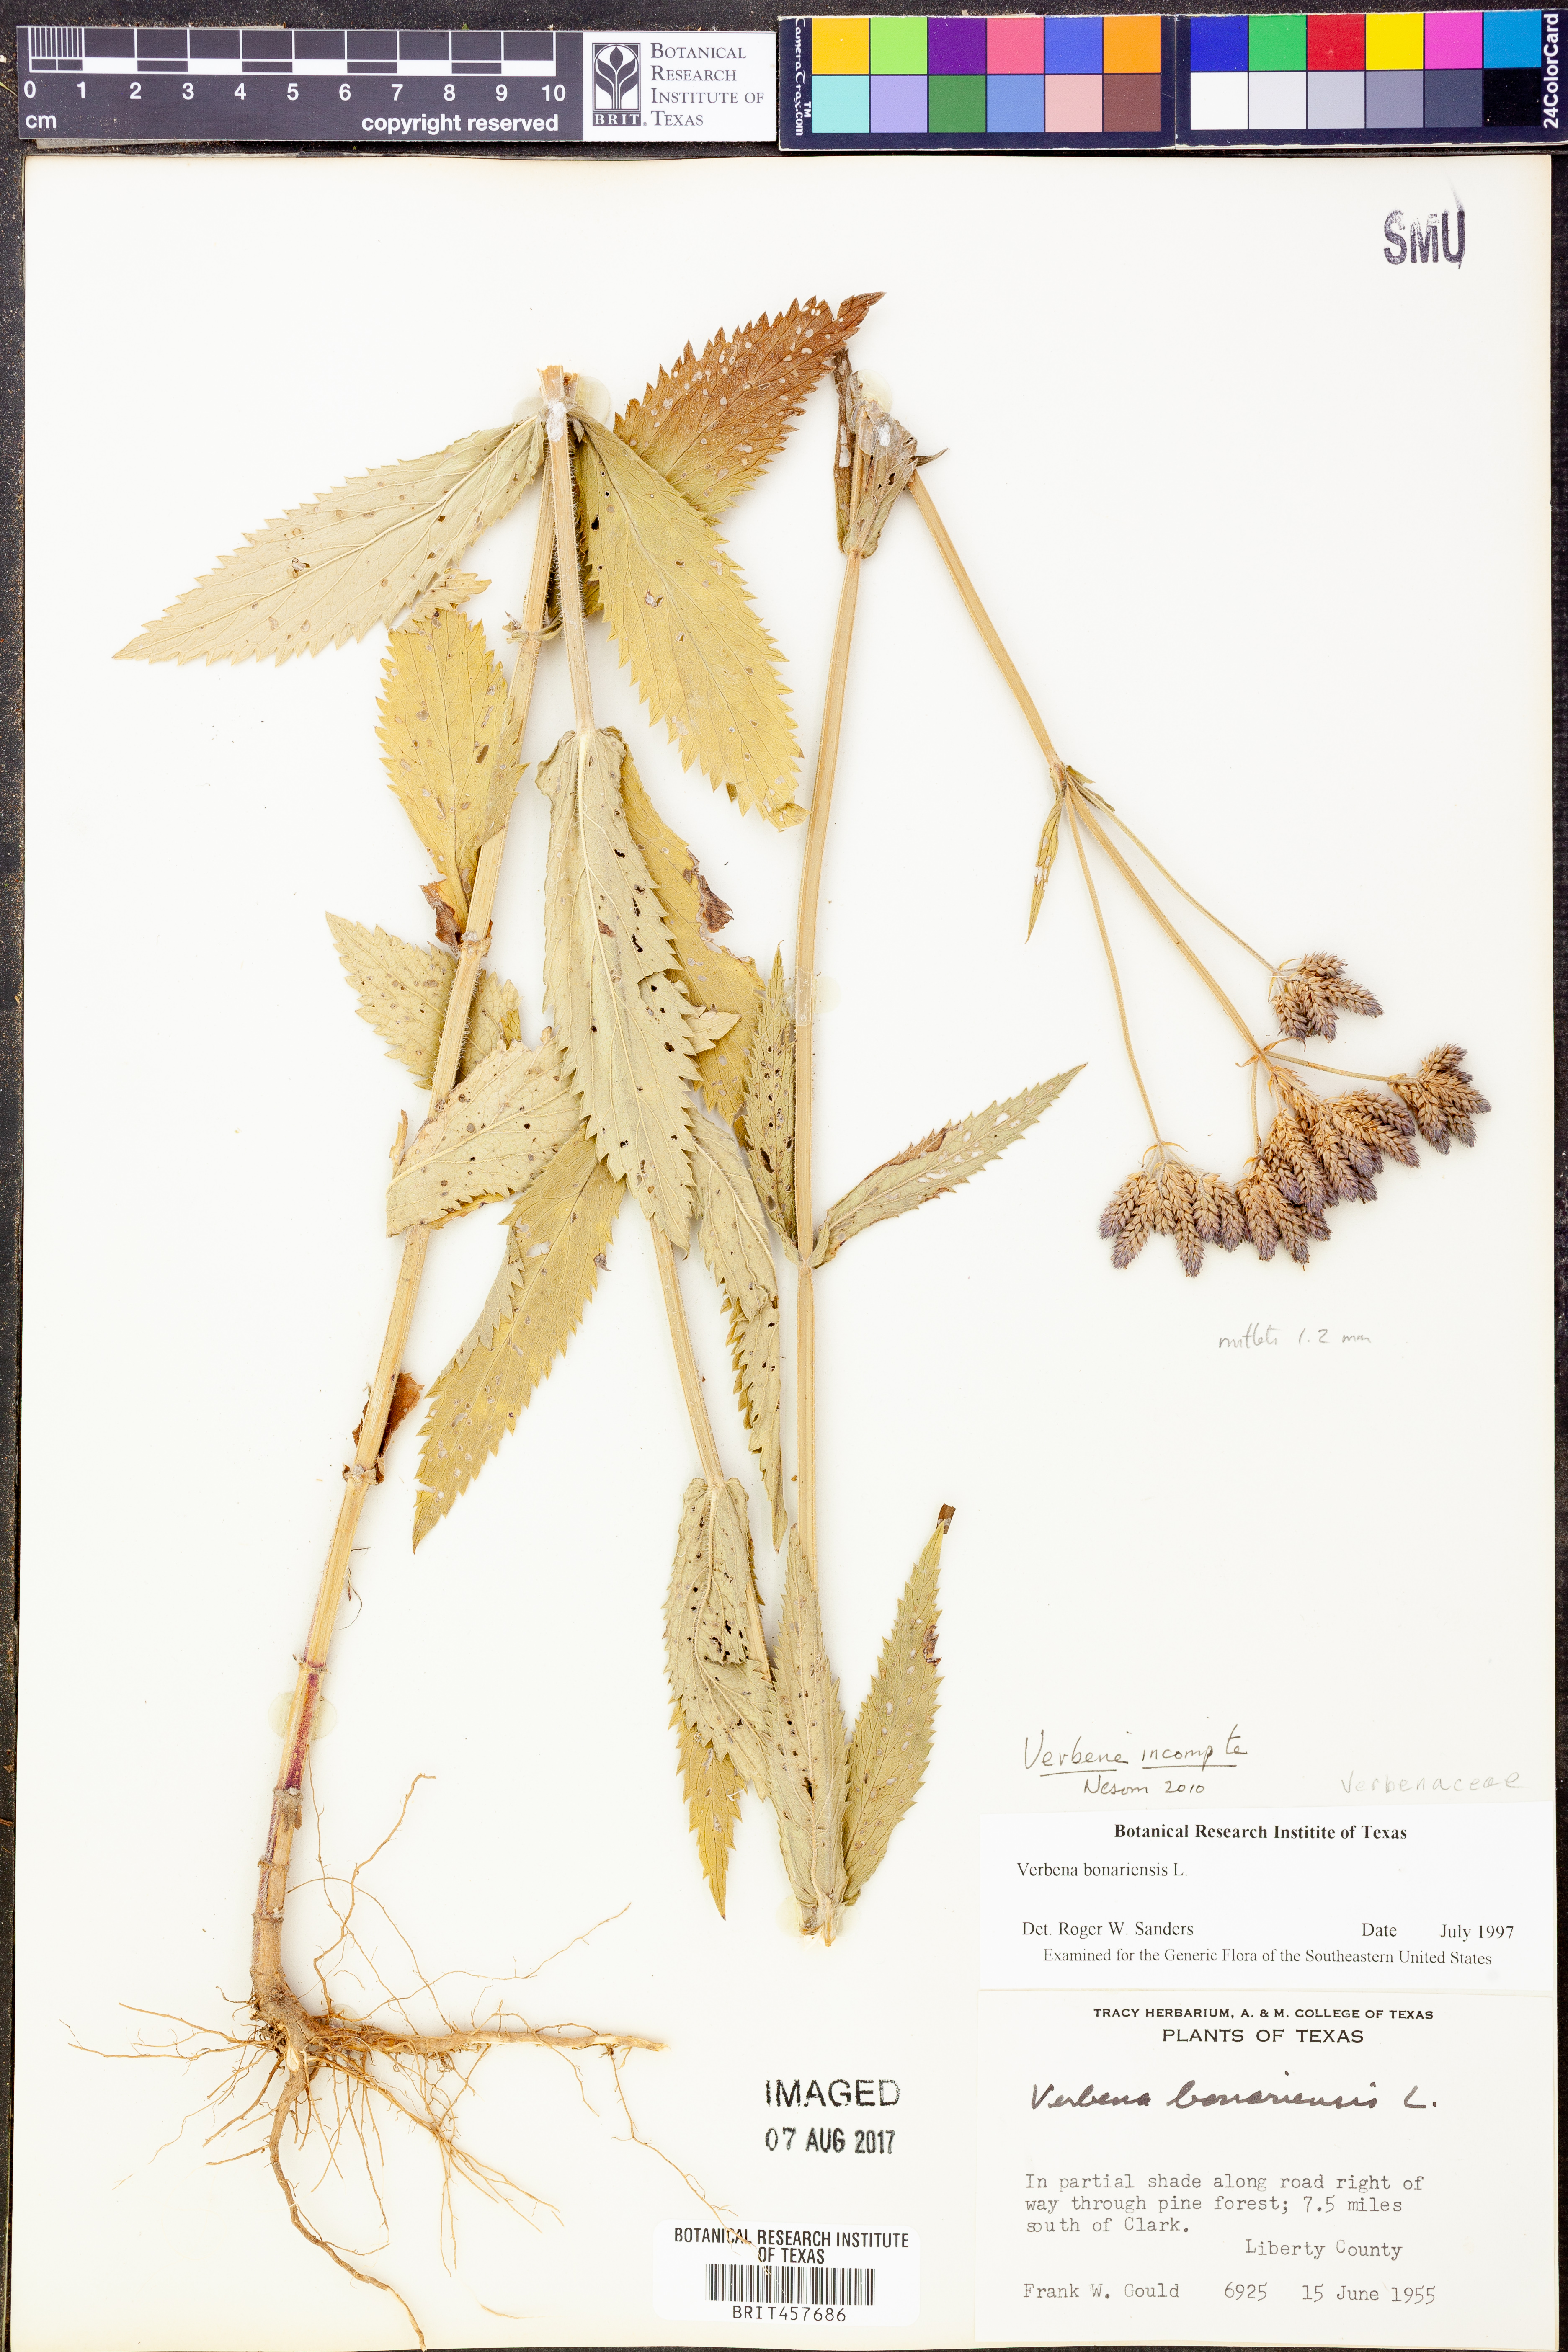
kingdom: Plantae
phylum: Tracheophyta
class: Magnoliopsida
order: Lamiales
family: Verbenaceae
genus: Verbena
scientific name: Verbena incompta
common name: Purpletop vervain
